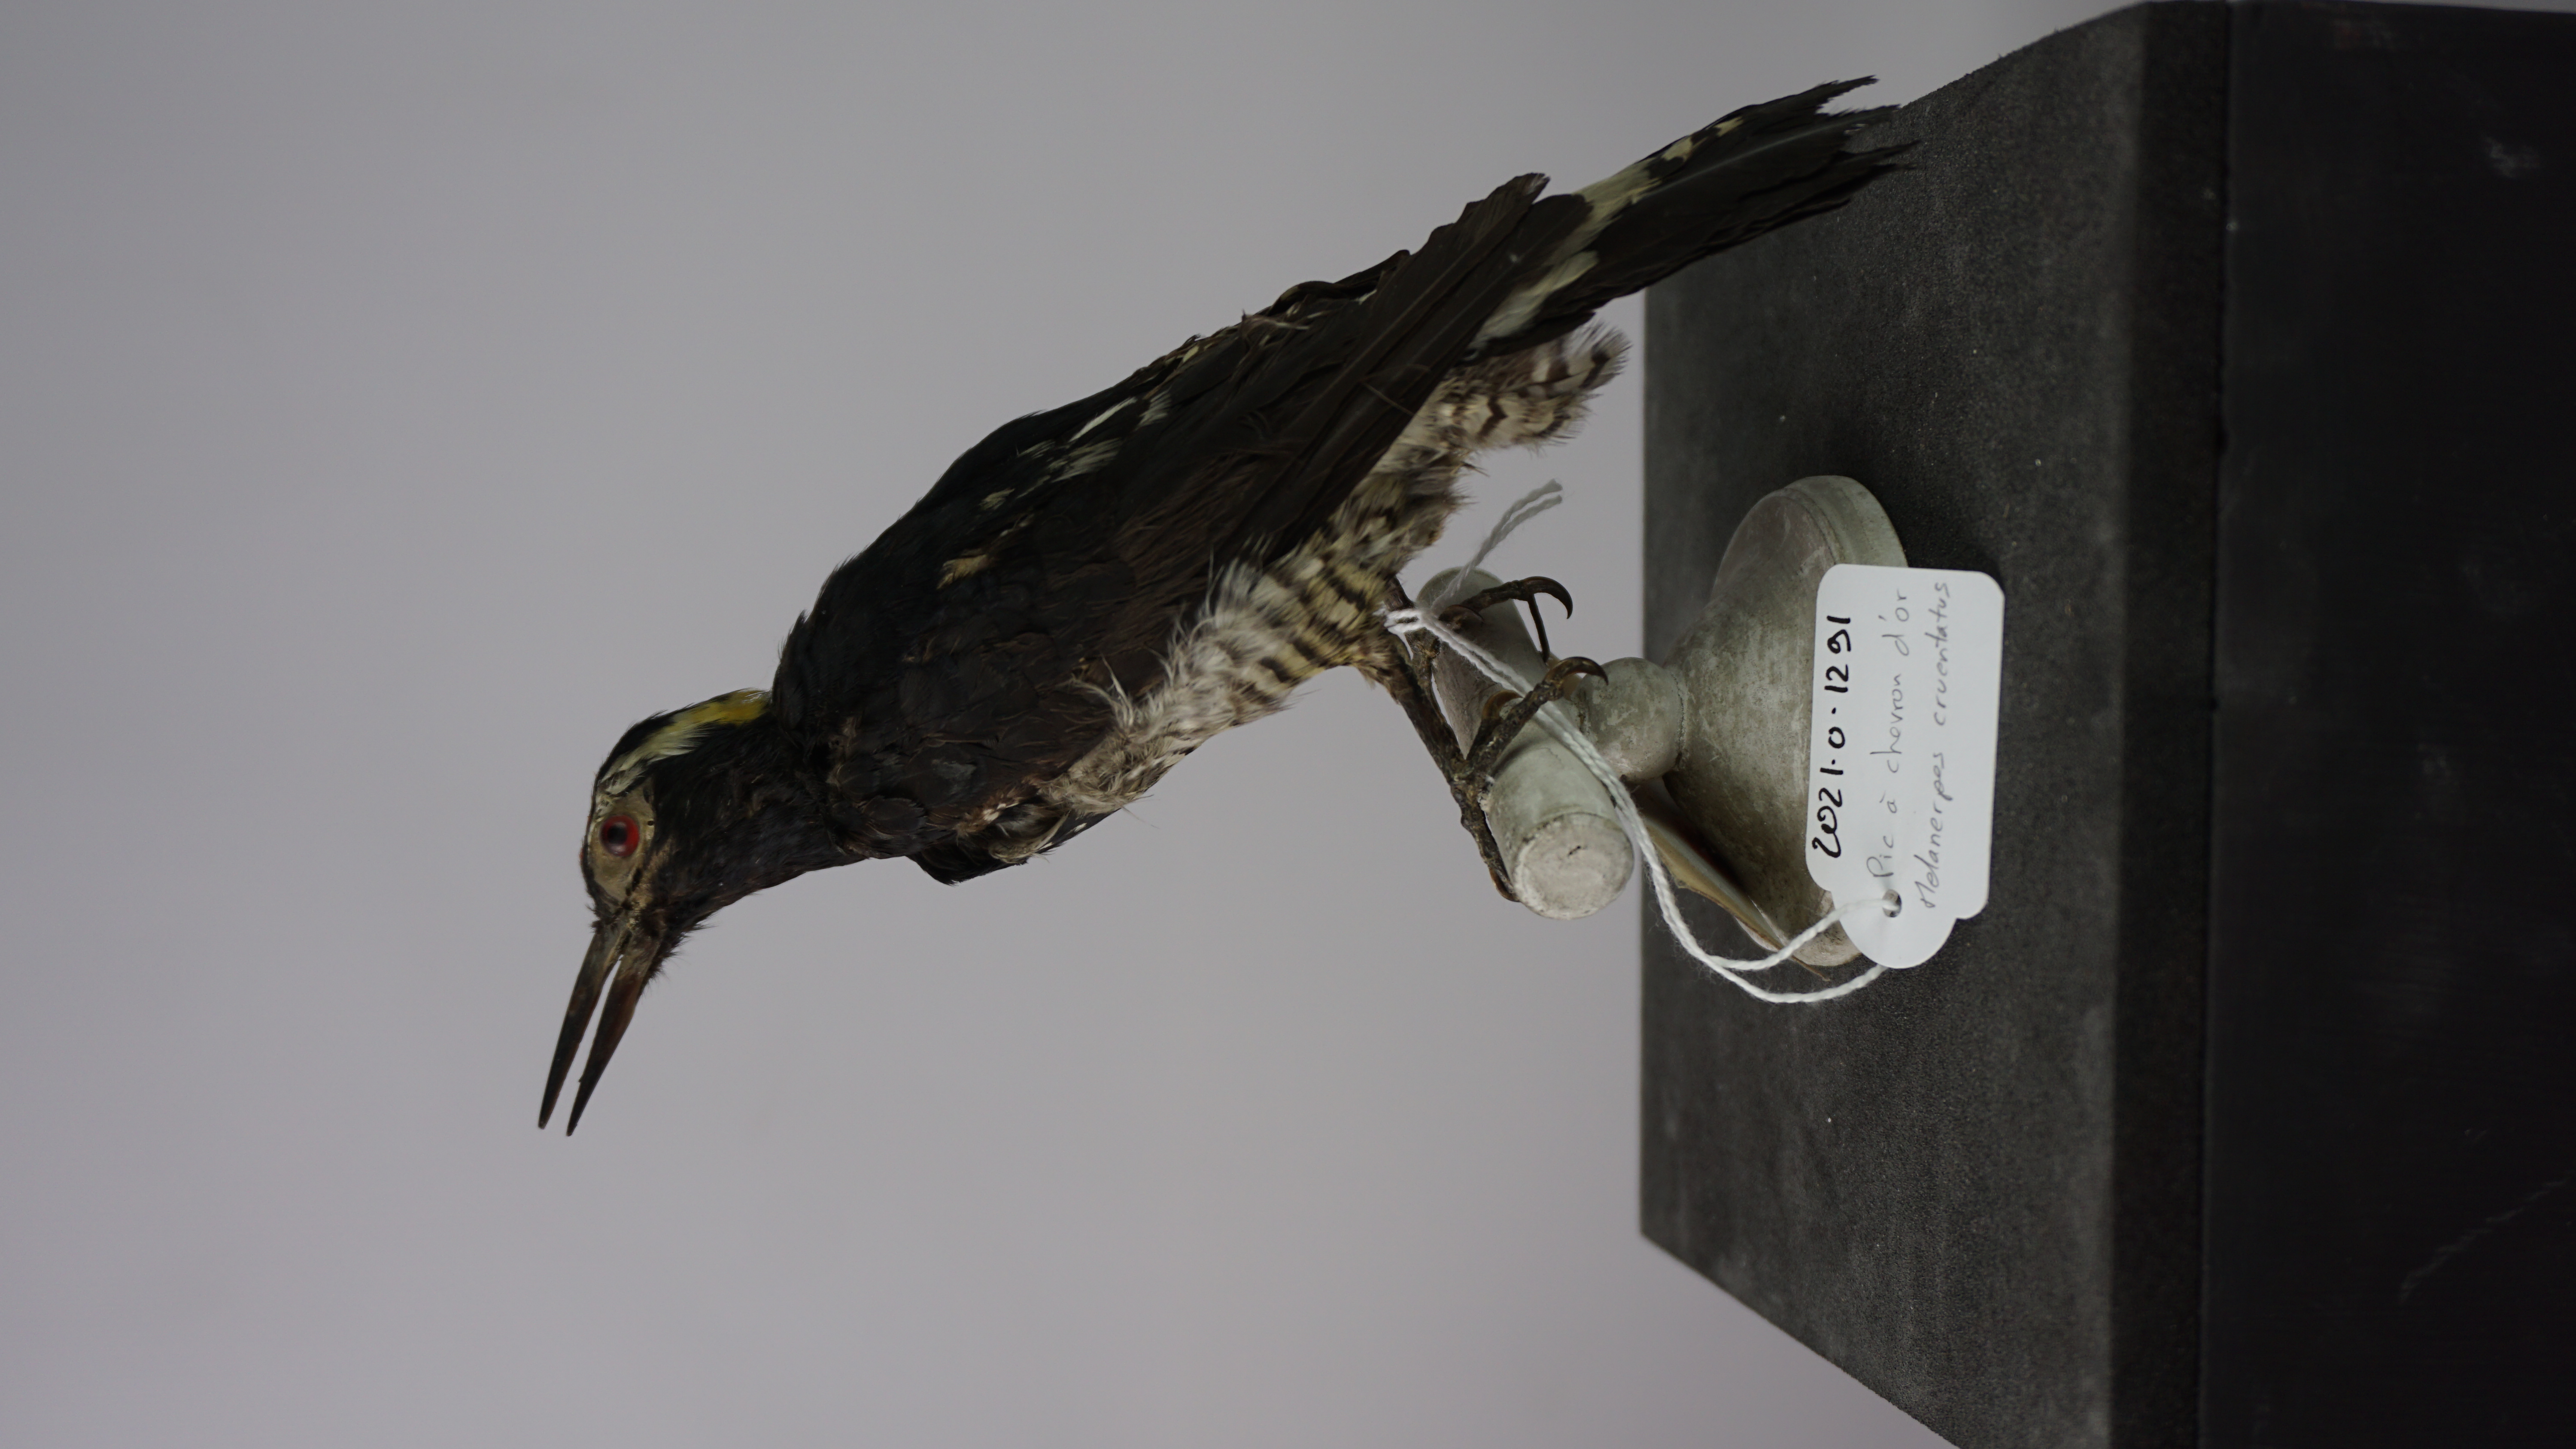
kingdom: Animalia
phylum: Chordata
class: Aves
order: Piciformes
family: Picidae
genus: Melanerpes
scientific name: Melanerpes cruentatus
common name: Yellow-tufted woodpecker
